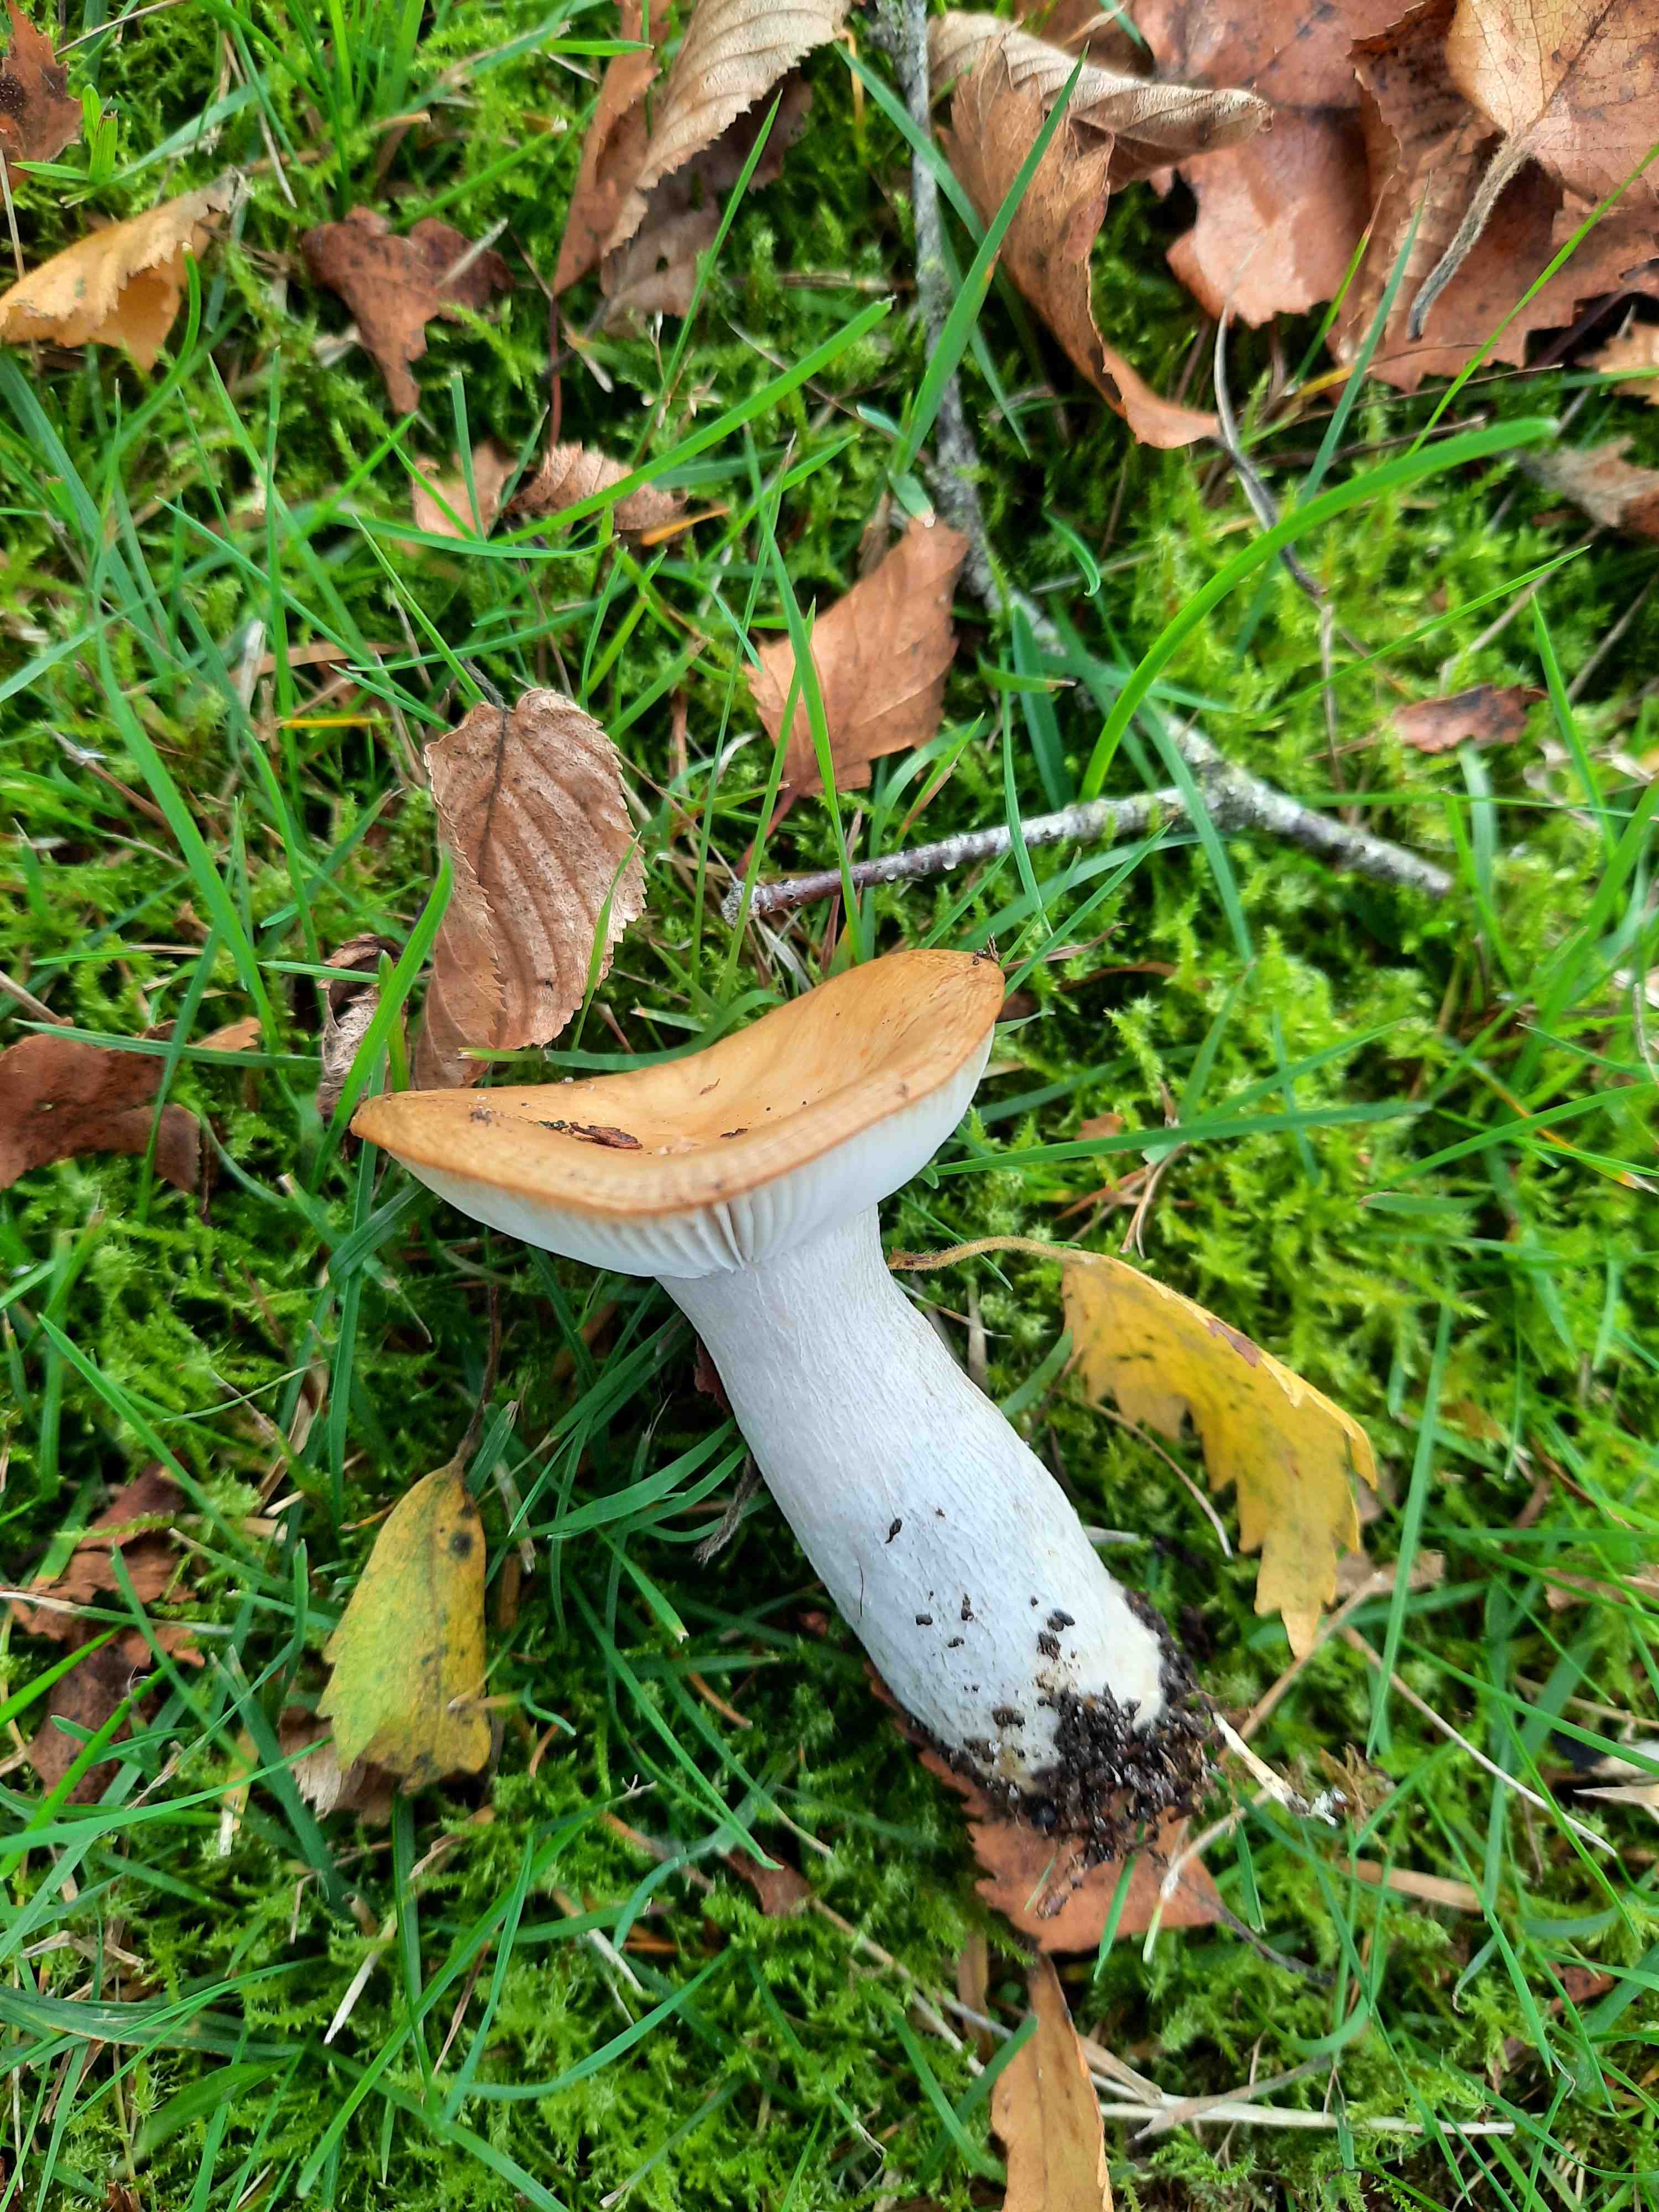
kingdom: Fungi
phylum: Basidiomycota
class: Agaricomycetes
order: Russulales
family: Russulaceae
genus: Russula
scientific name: Russula ochroleuca
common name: okkergul skørhat
